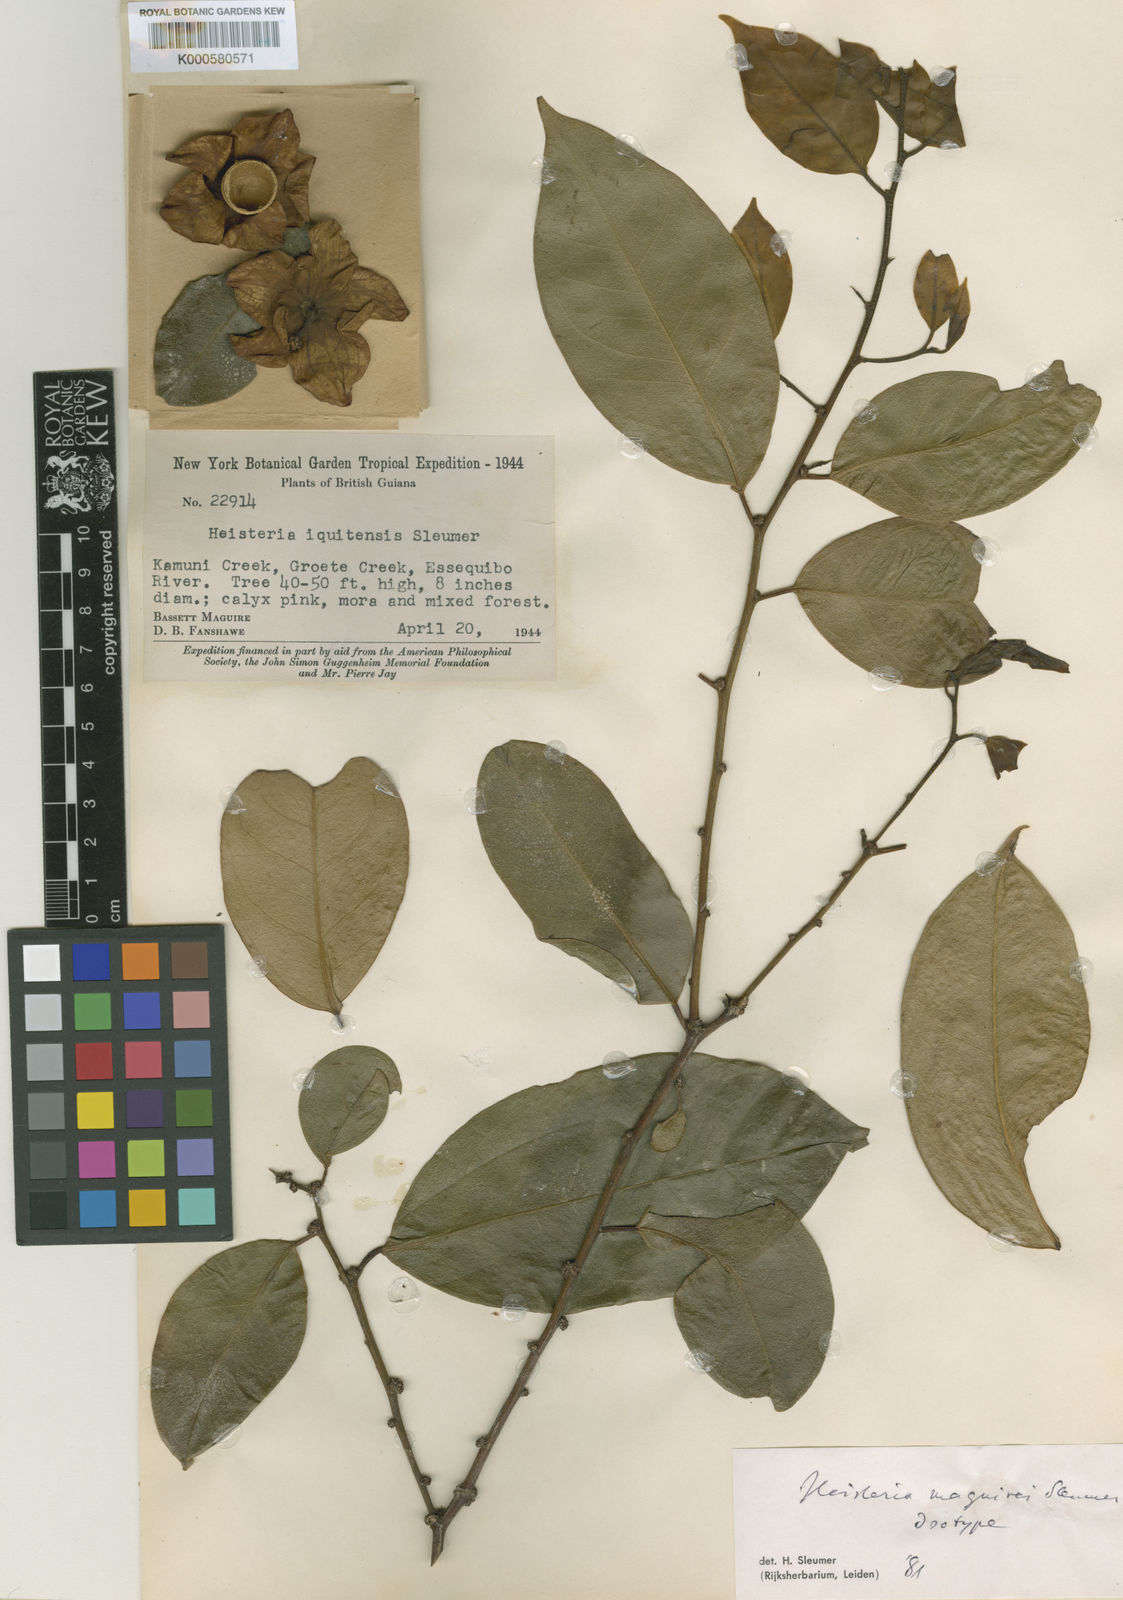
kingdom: Plantae
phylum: Tracheophyta
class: Magnoliopsida
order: Santalales
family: Erythropalaceae
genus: Heisteria
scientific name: Heisteria maguirei
